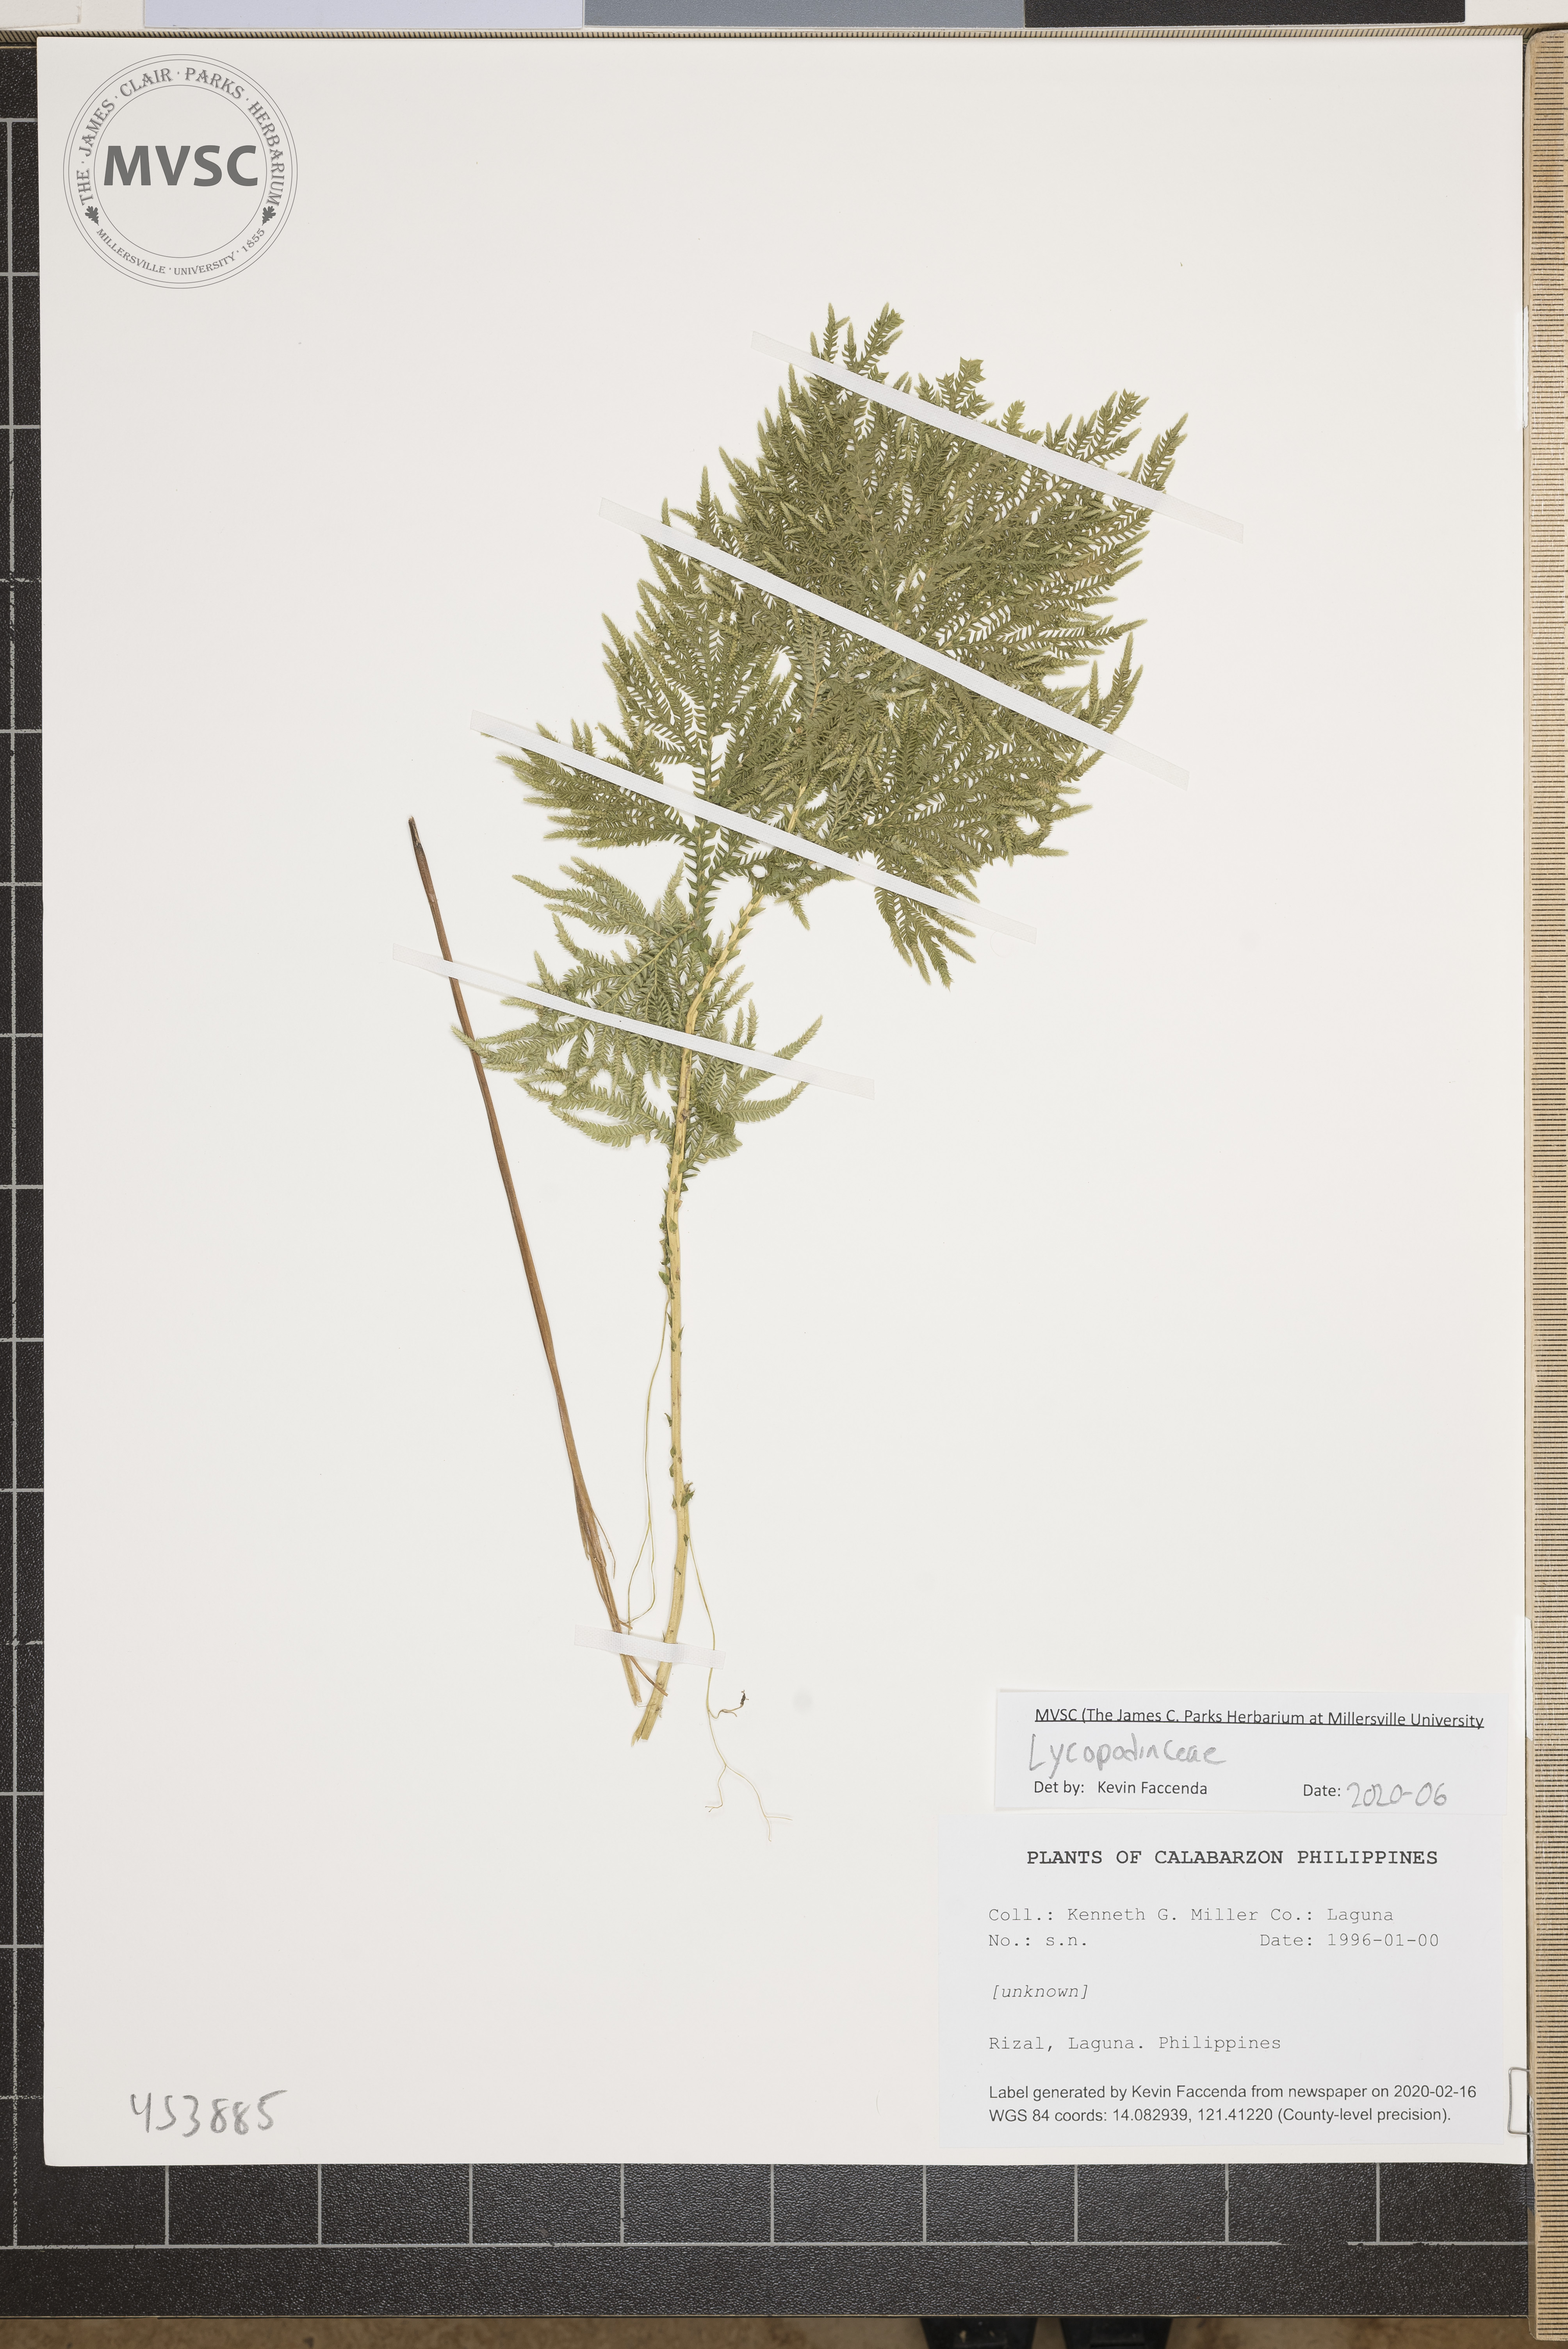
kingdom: Plantae
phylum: Tracheophyta
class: Lycopodiopsida
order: Lycopodiales
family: Lycopodiaceae
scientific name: Lycopodiaceae
